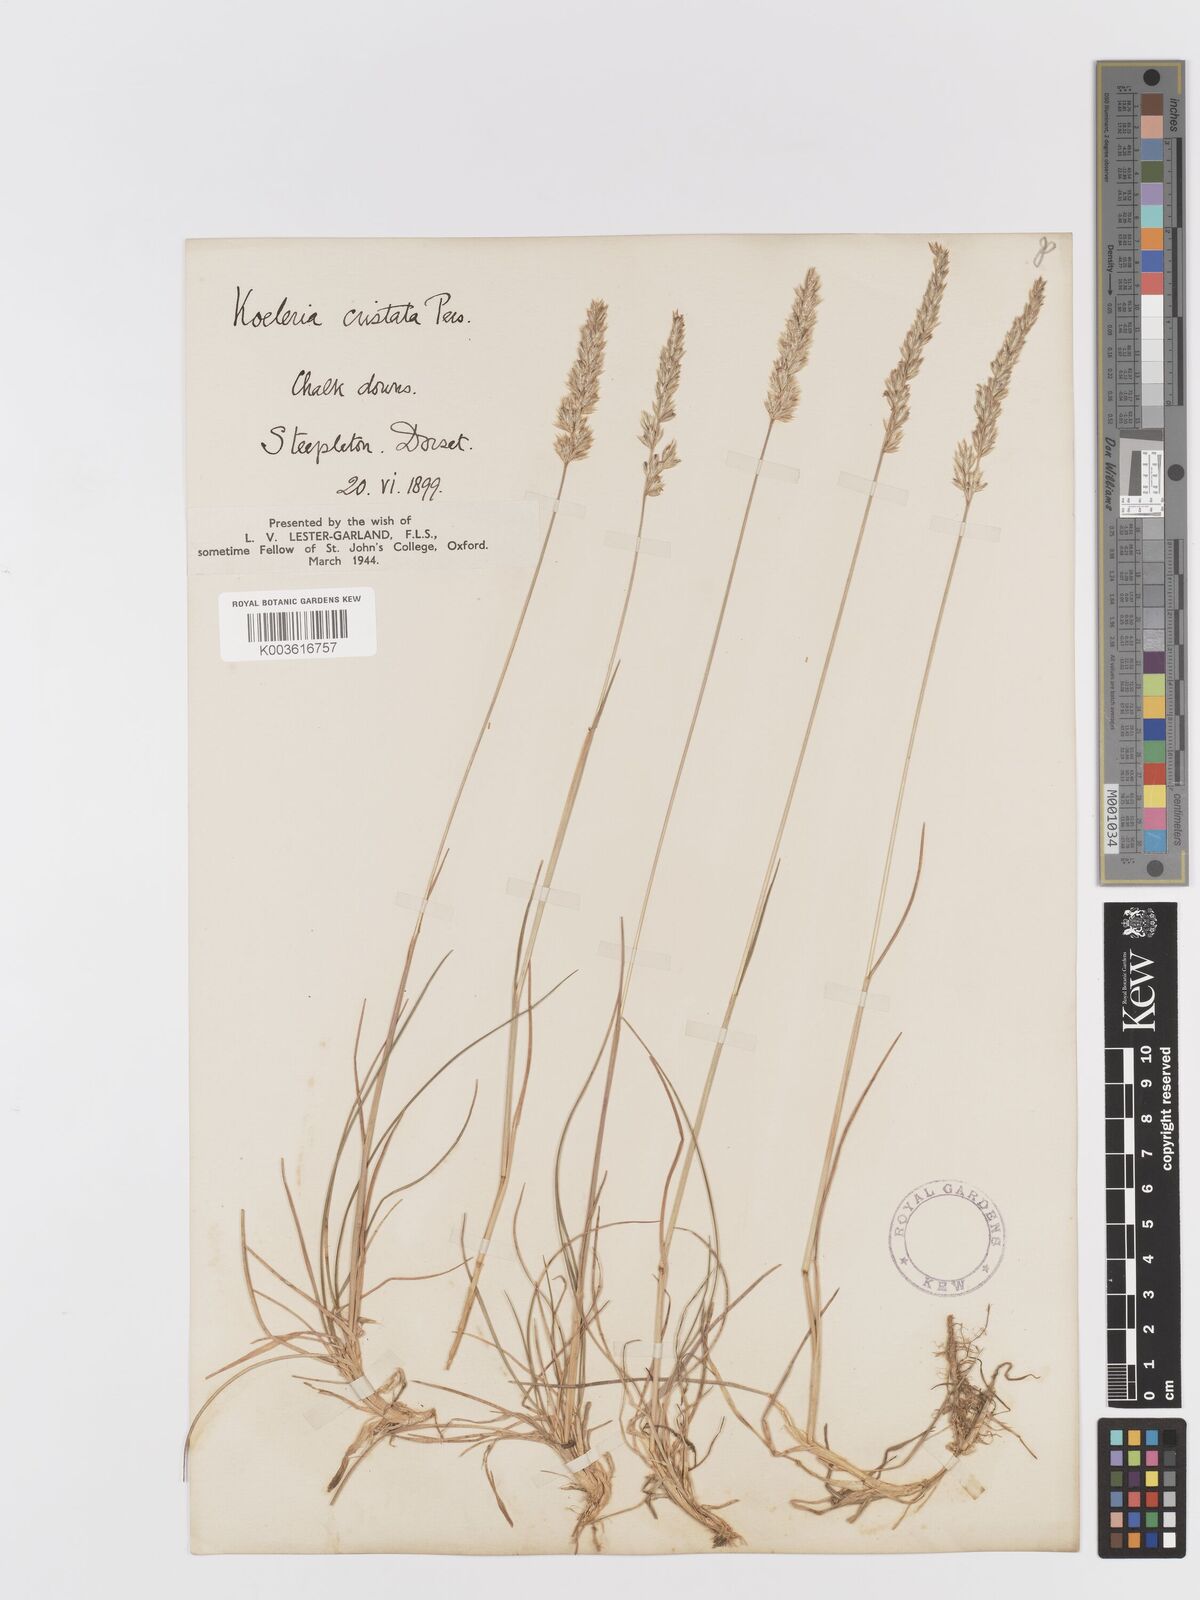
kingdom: Plantae
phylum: Tracheophyta
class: Liliopsida
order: Poales
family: Poaceae
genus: Koeleria
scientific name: Koeleria
